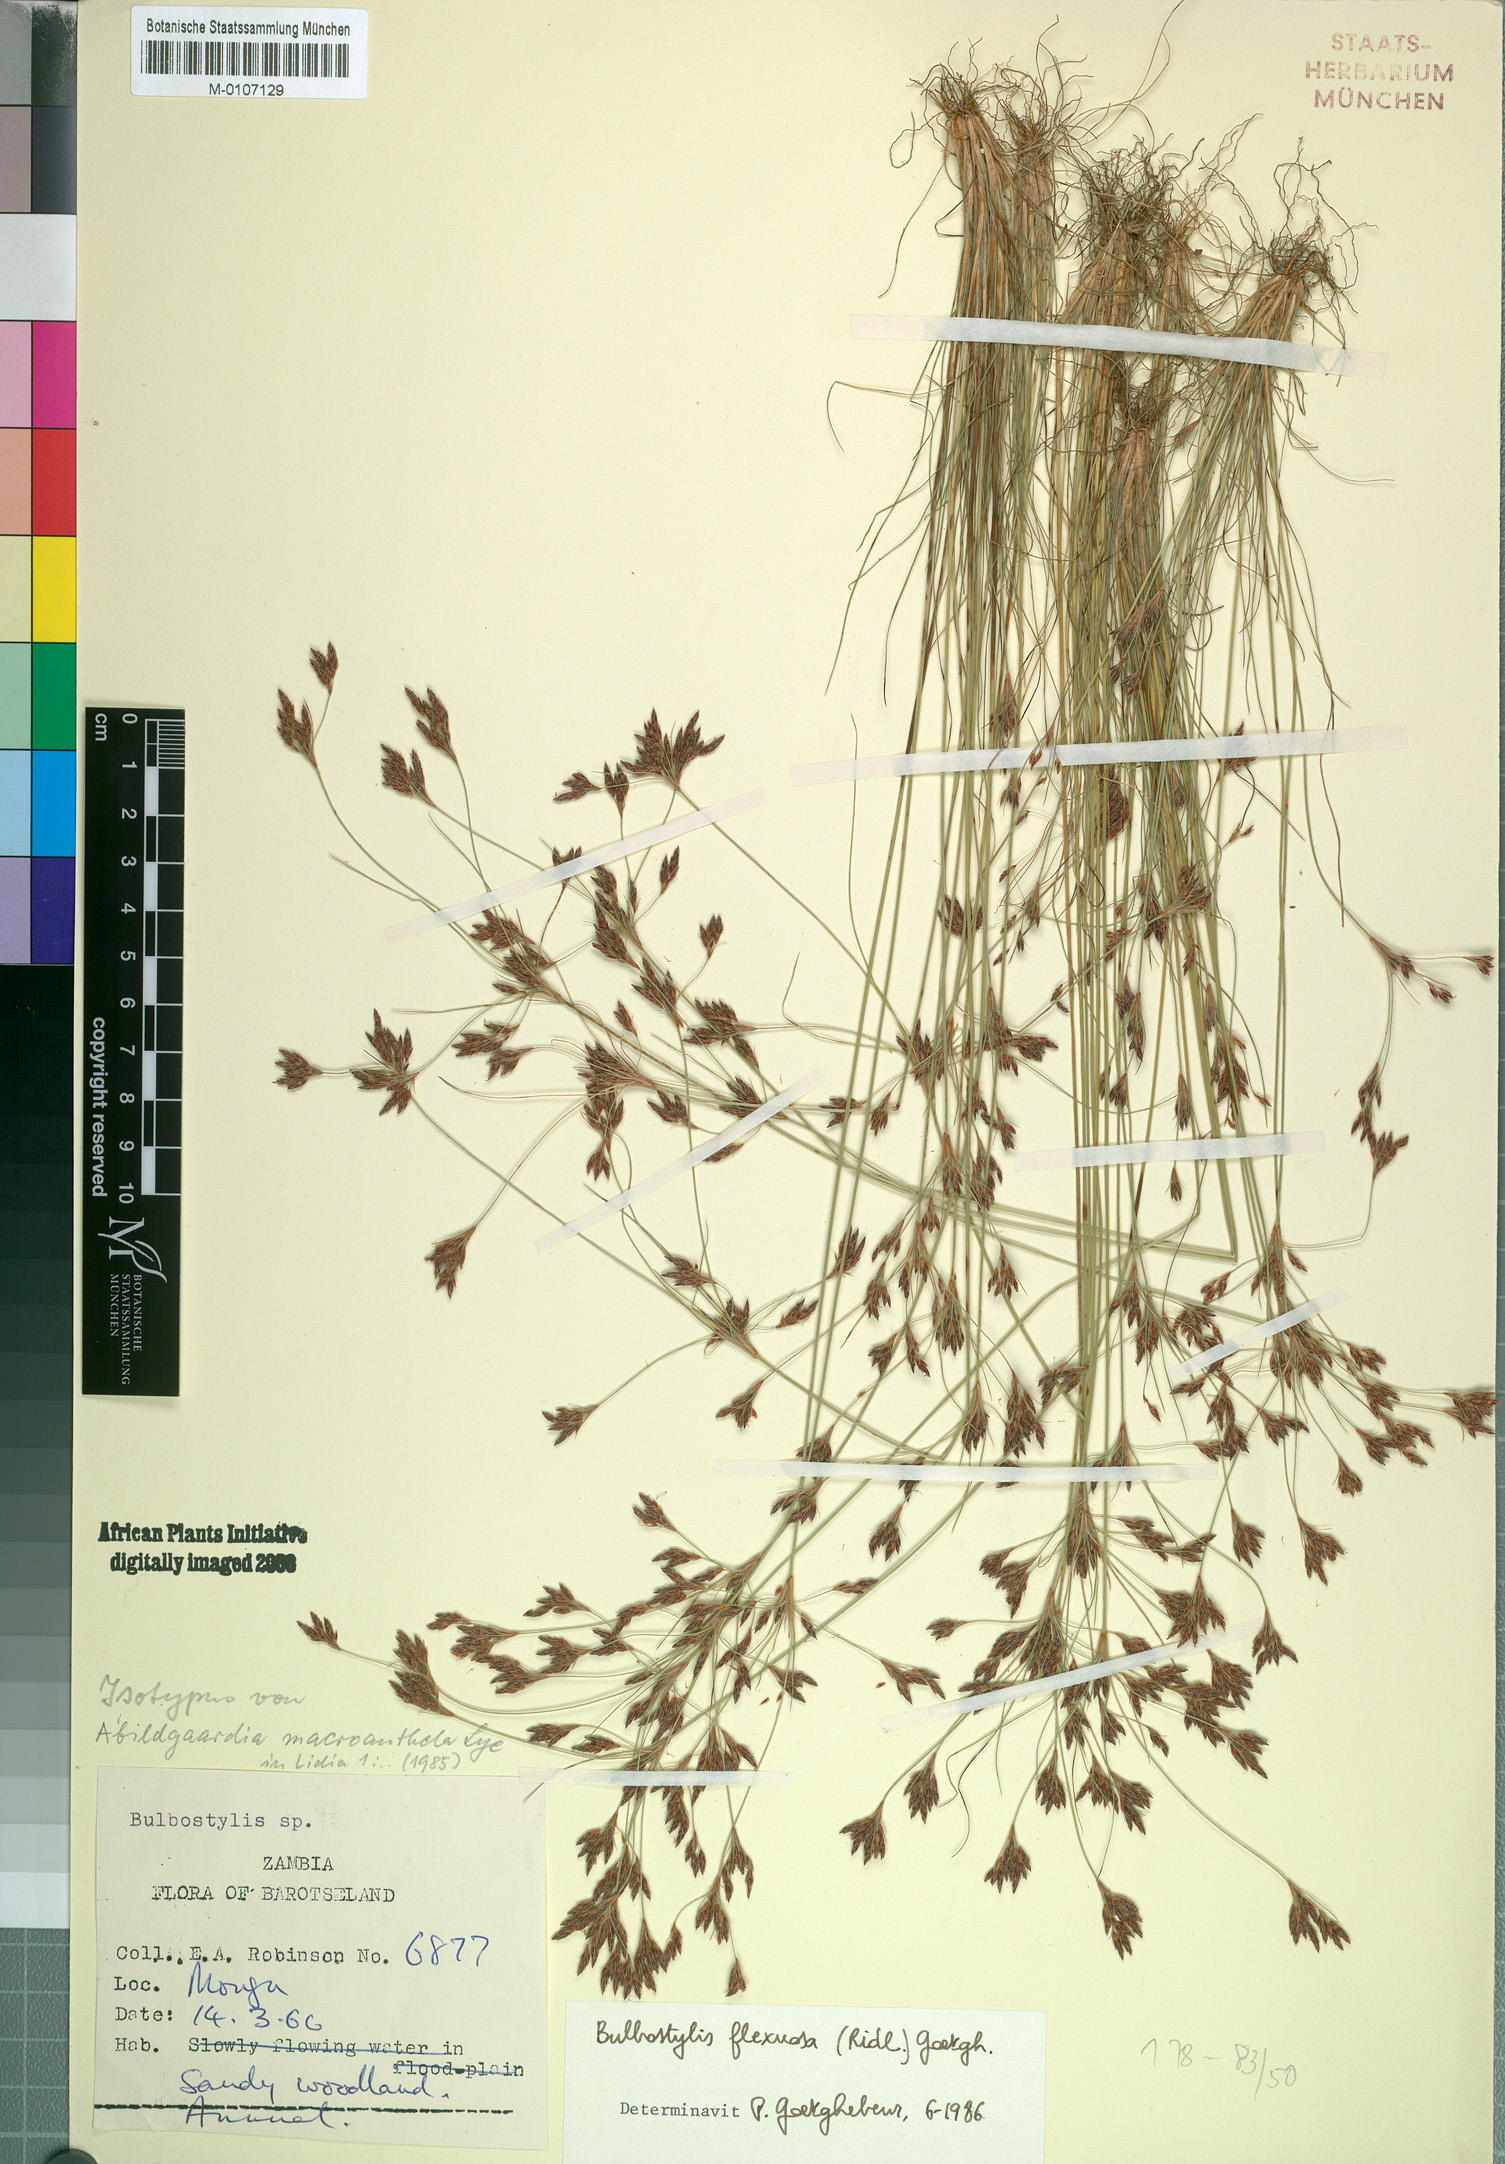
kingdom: Plantae
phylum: Tracheophyta
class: Liliopsida
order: Poales
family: Cyperaceae
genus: Bulbostylis
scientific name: Bulbostylis flexuosa
